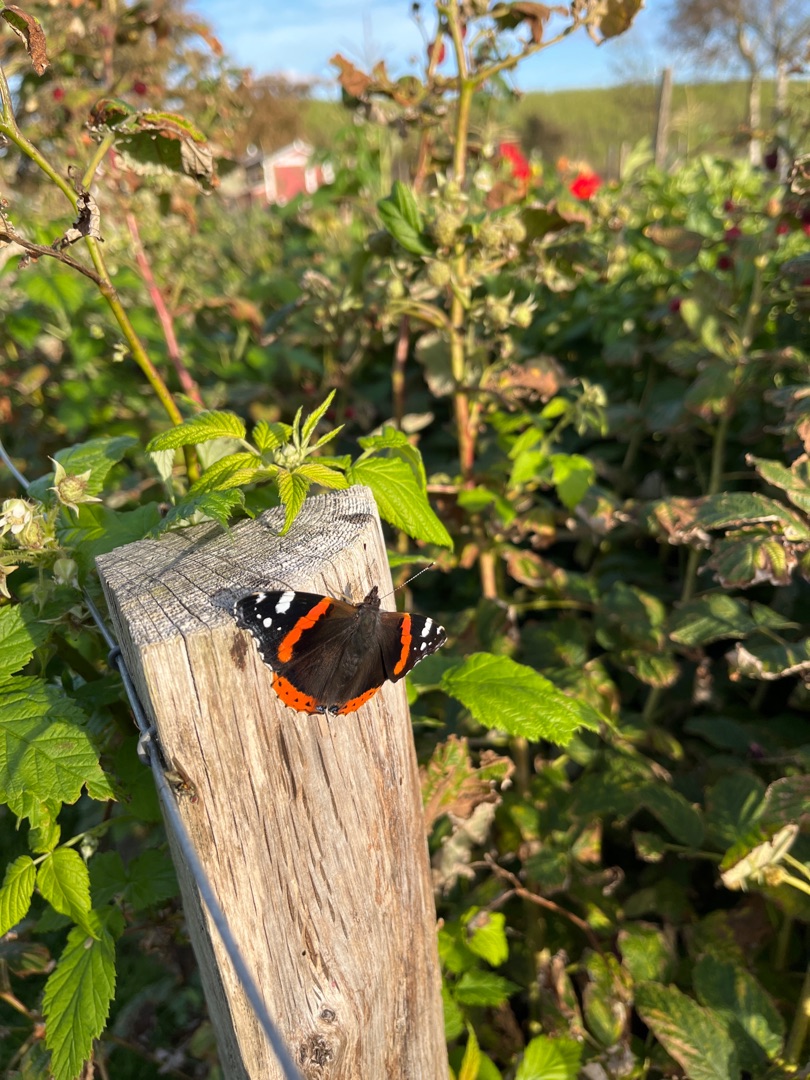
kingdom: Animalia
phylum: Arthropoda
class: Insecta
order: Lepidoptera
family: Nymphalidae
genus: Vanessa
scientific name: Vanessa atalanta
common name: Admiral
